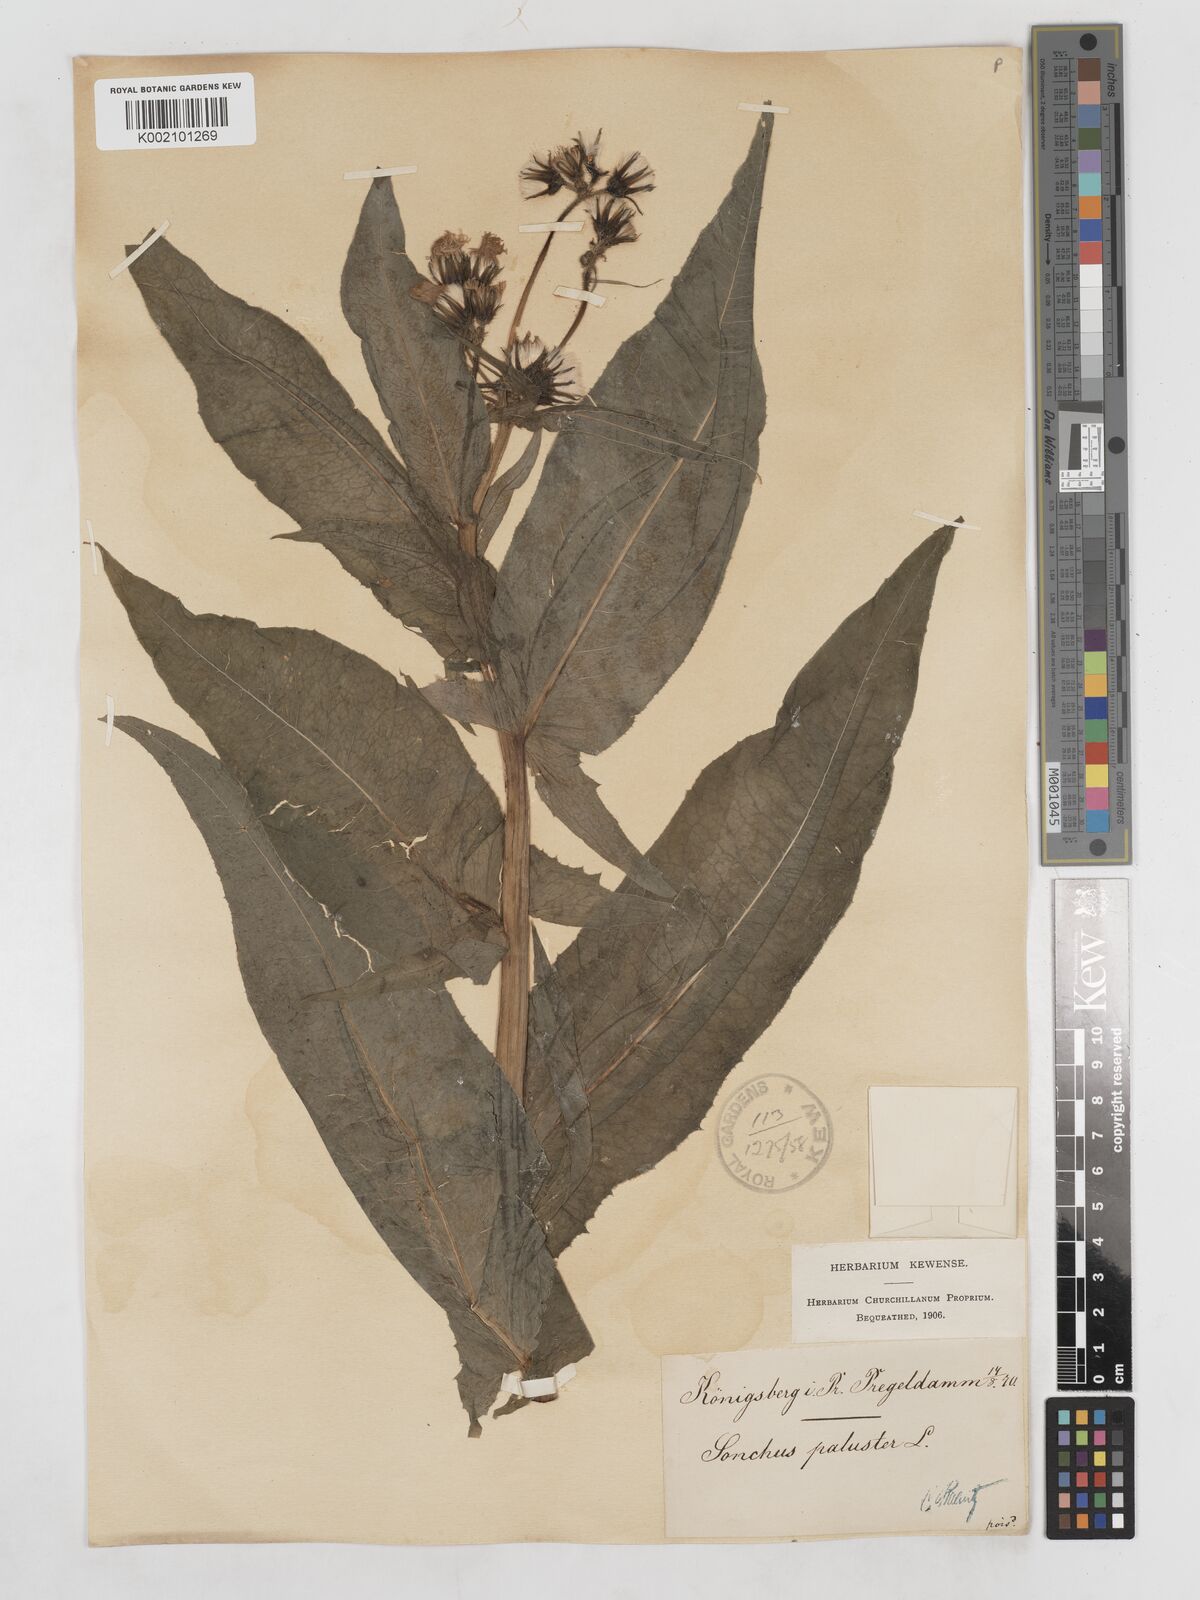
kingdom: Plantae
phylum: Tracheophyta
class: Magnoliopsida
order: Asterales
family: Asteraceae
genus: Sonchus
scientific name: Sonchus palustris
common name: Marsh sow-thistle
